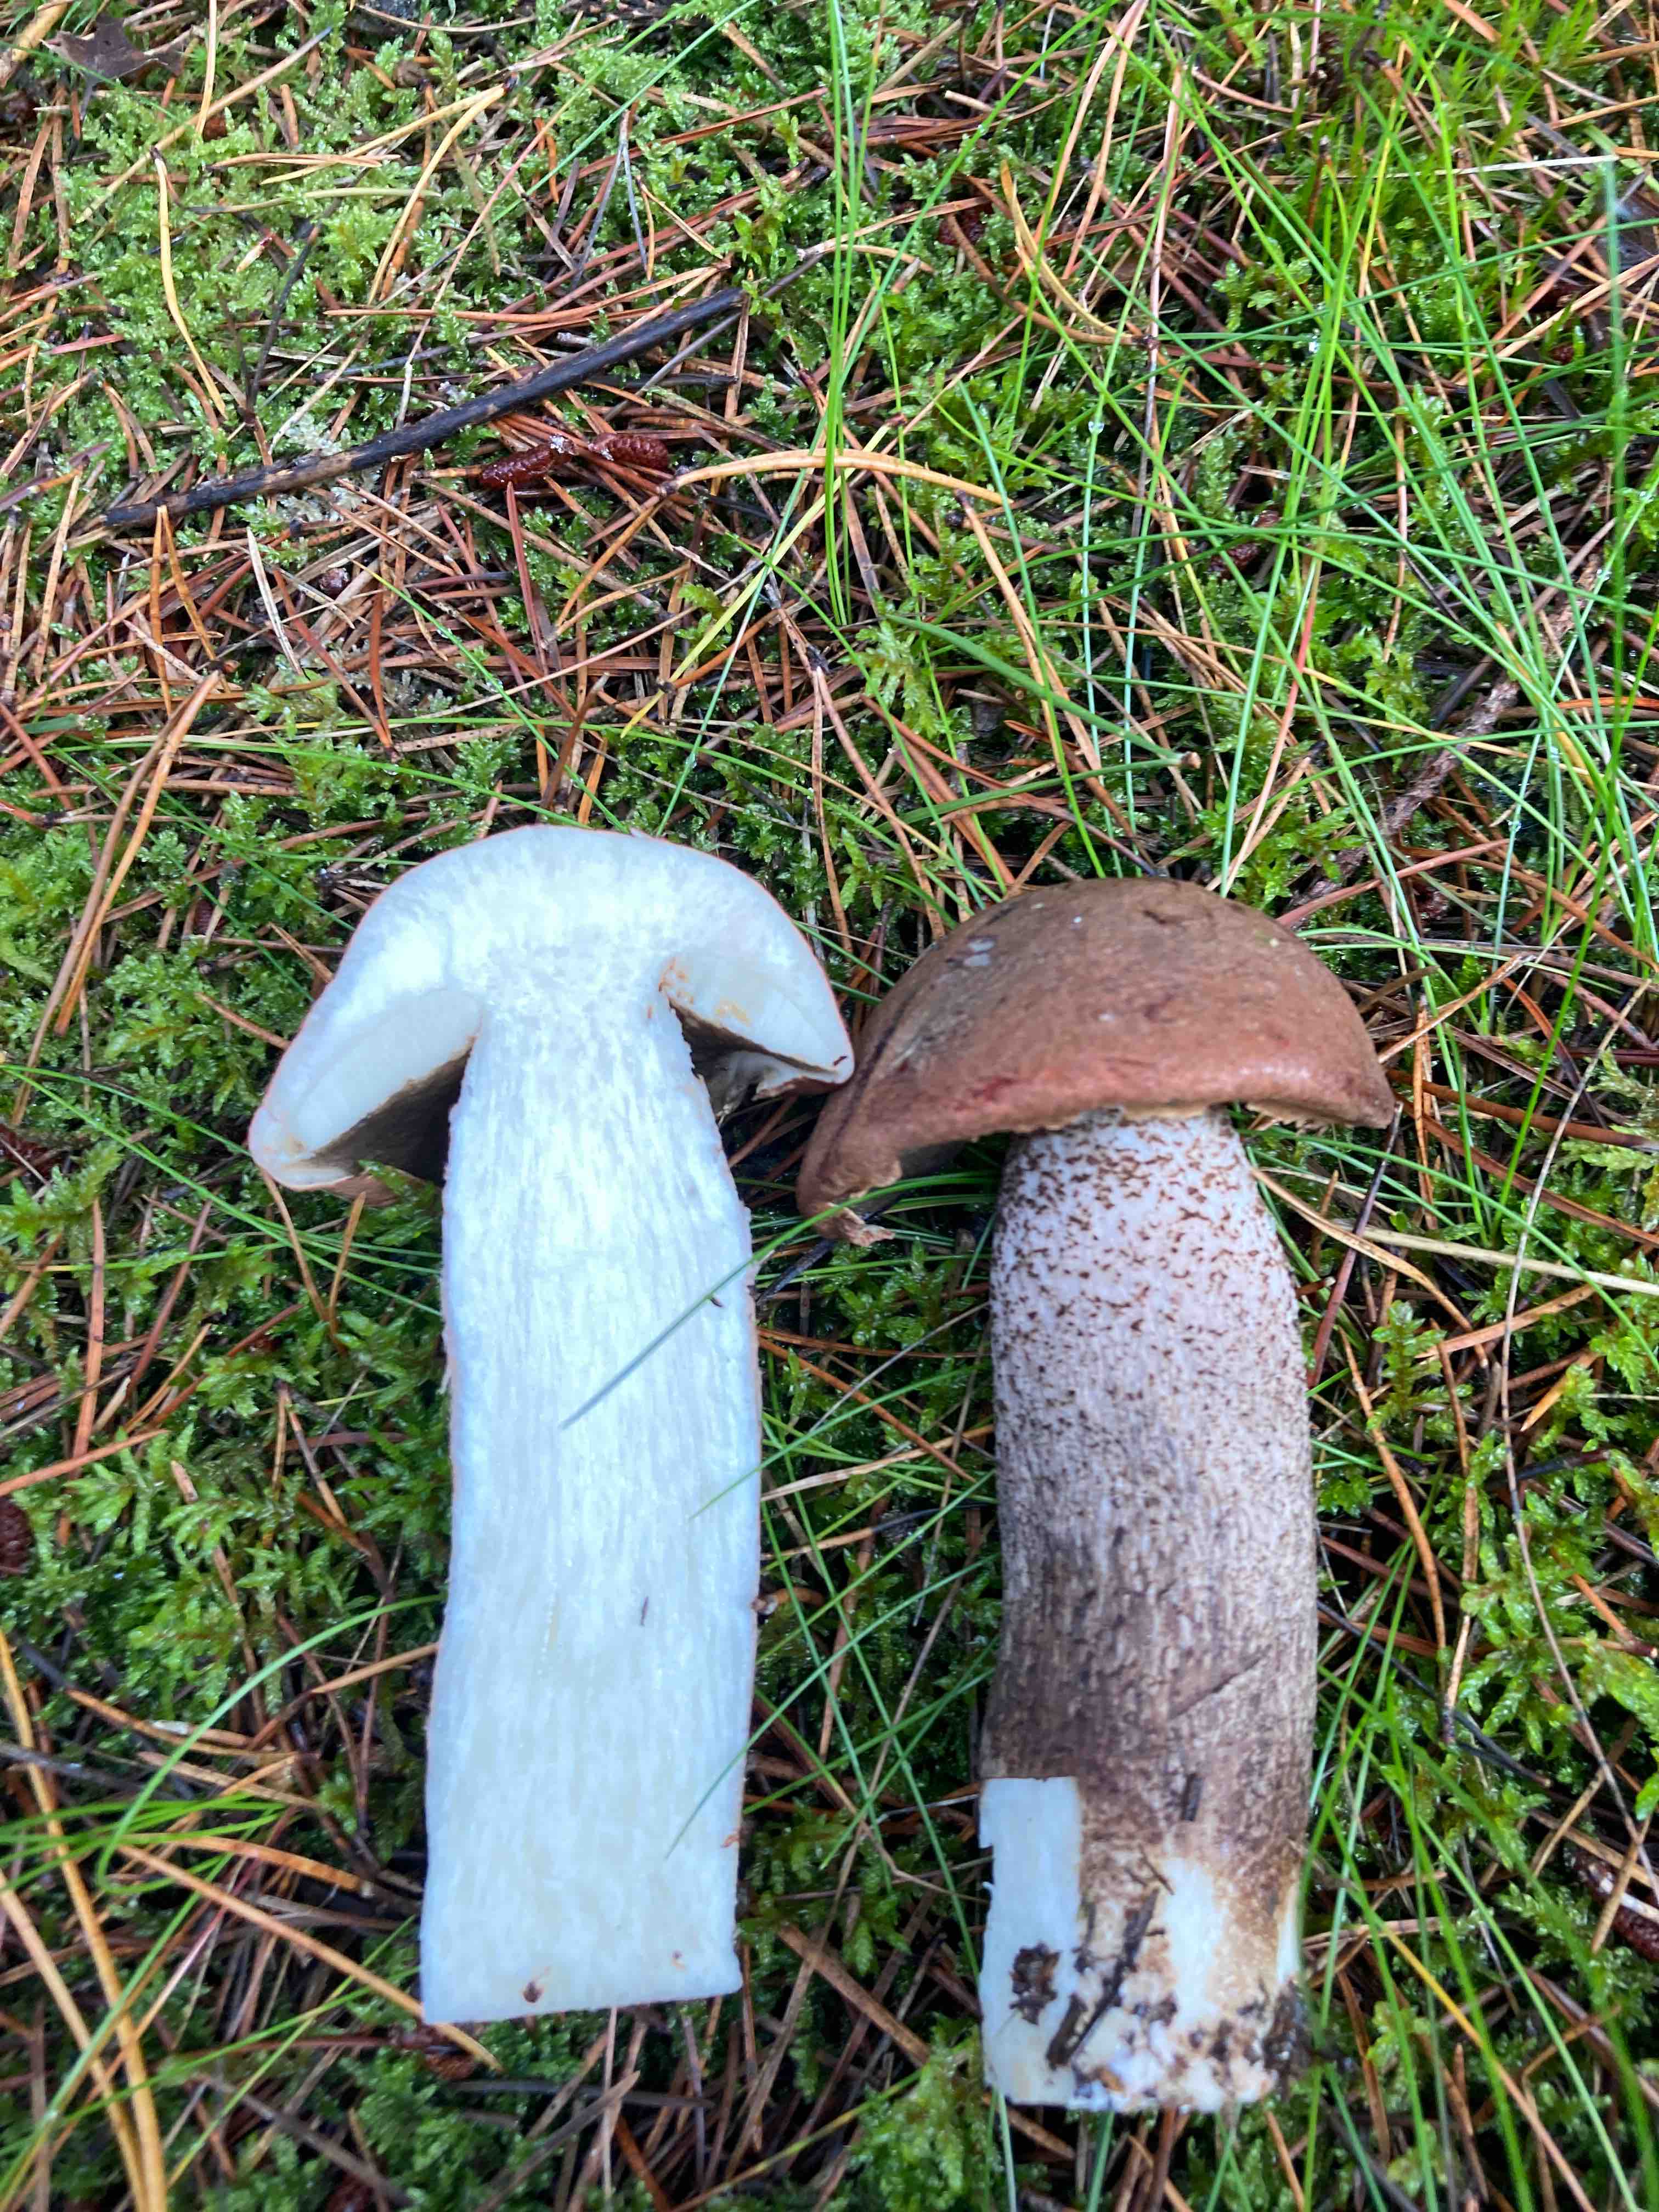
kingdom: Fungi
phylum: Basidiomycota
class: Agaricomycetes
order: Boletales
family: Boletaceae
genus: Leccinum
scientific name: Leccinum vulpinum
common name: fyrre-skælrørhat
